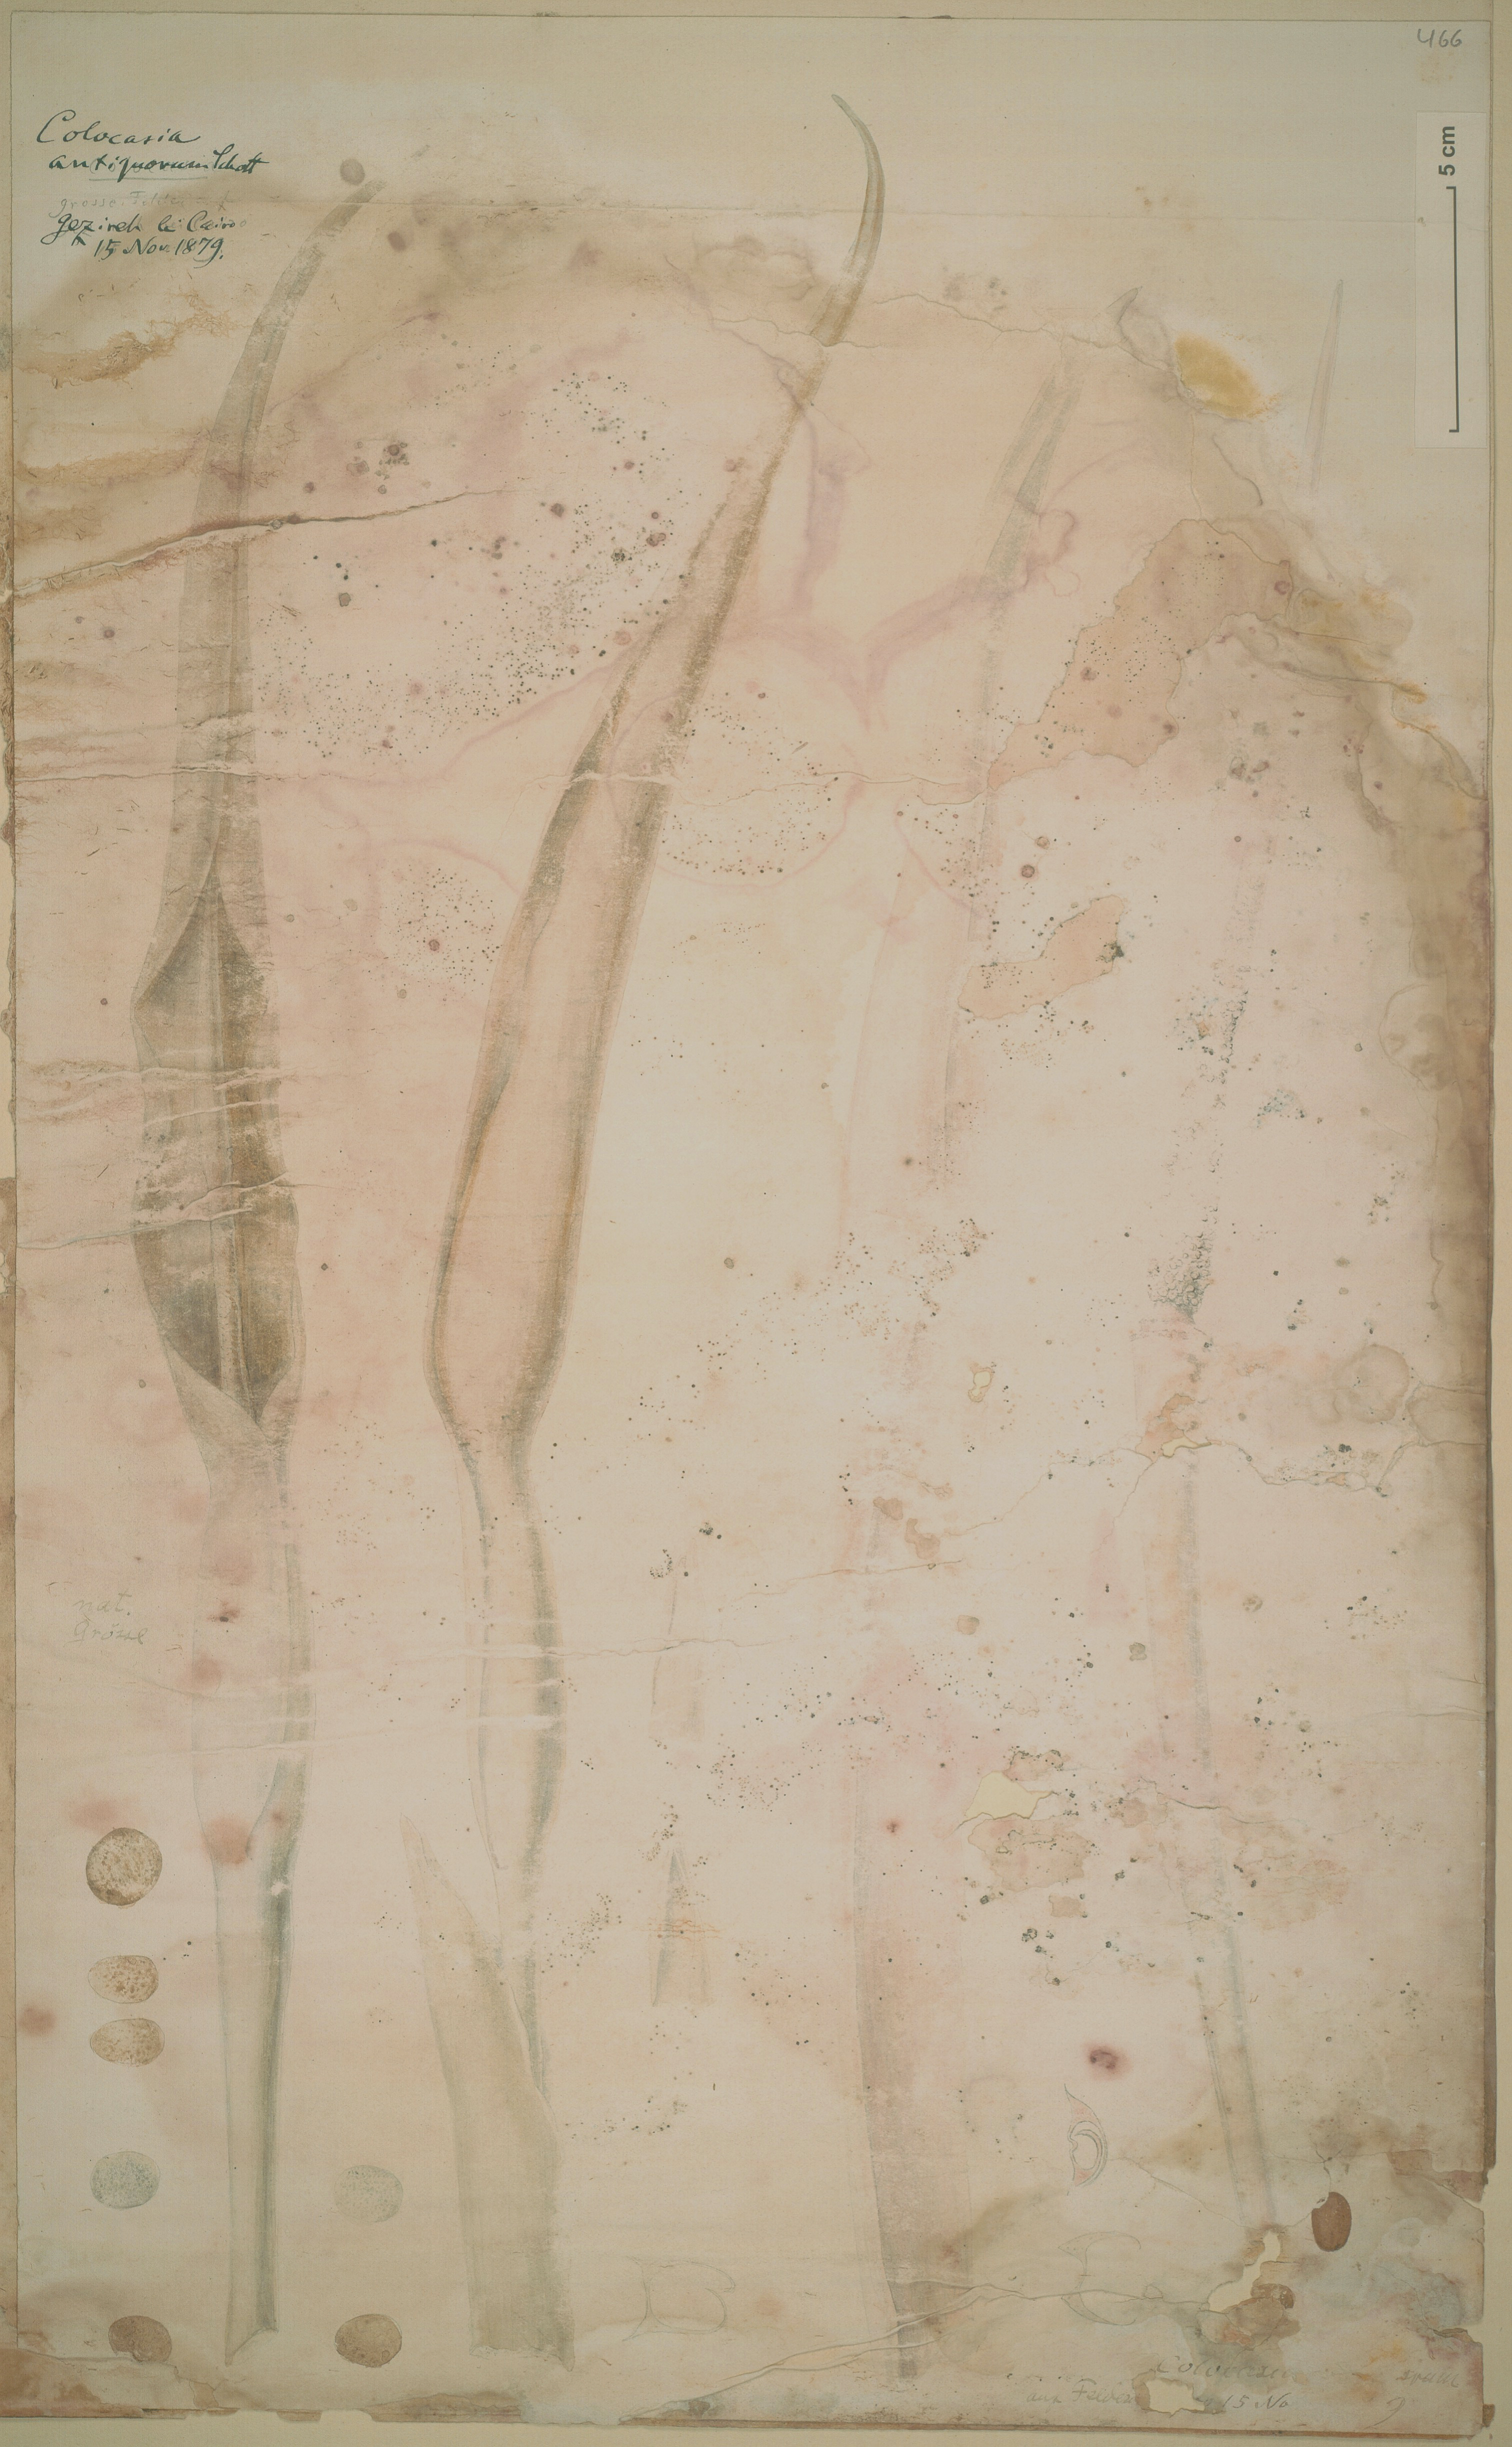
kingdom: Plantae
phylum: Tracheophyta
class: Liliopsida
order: Alismatales
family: Araceae
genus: Colocasia
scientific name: Colocasia esculenta
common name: Taro
